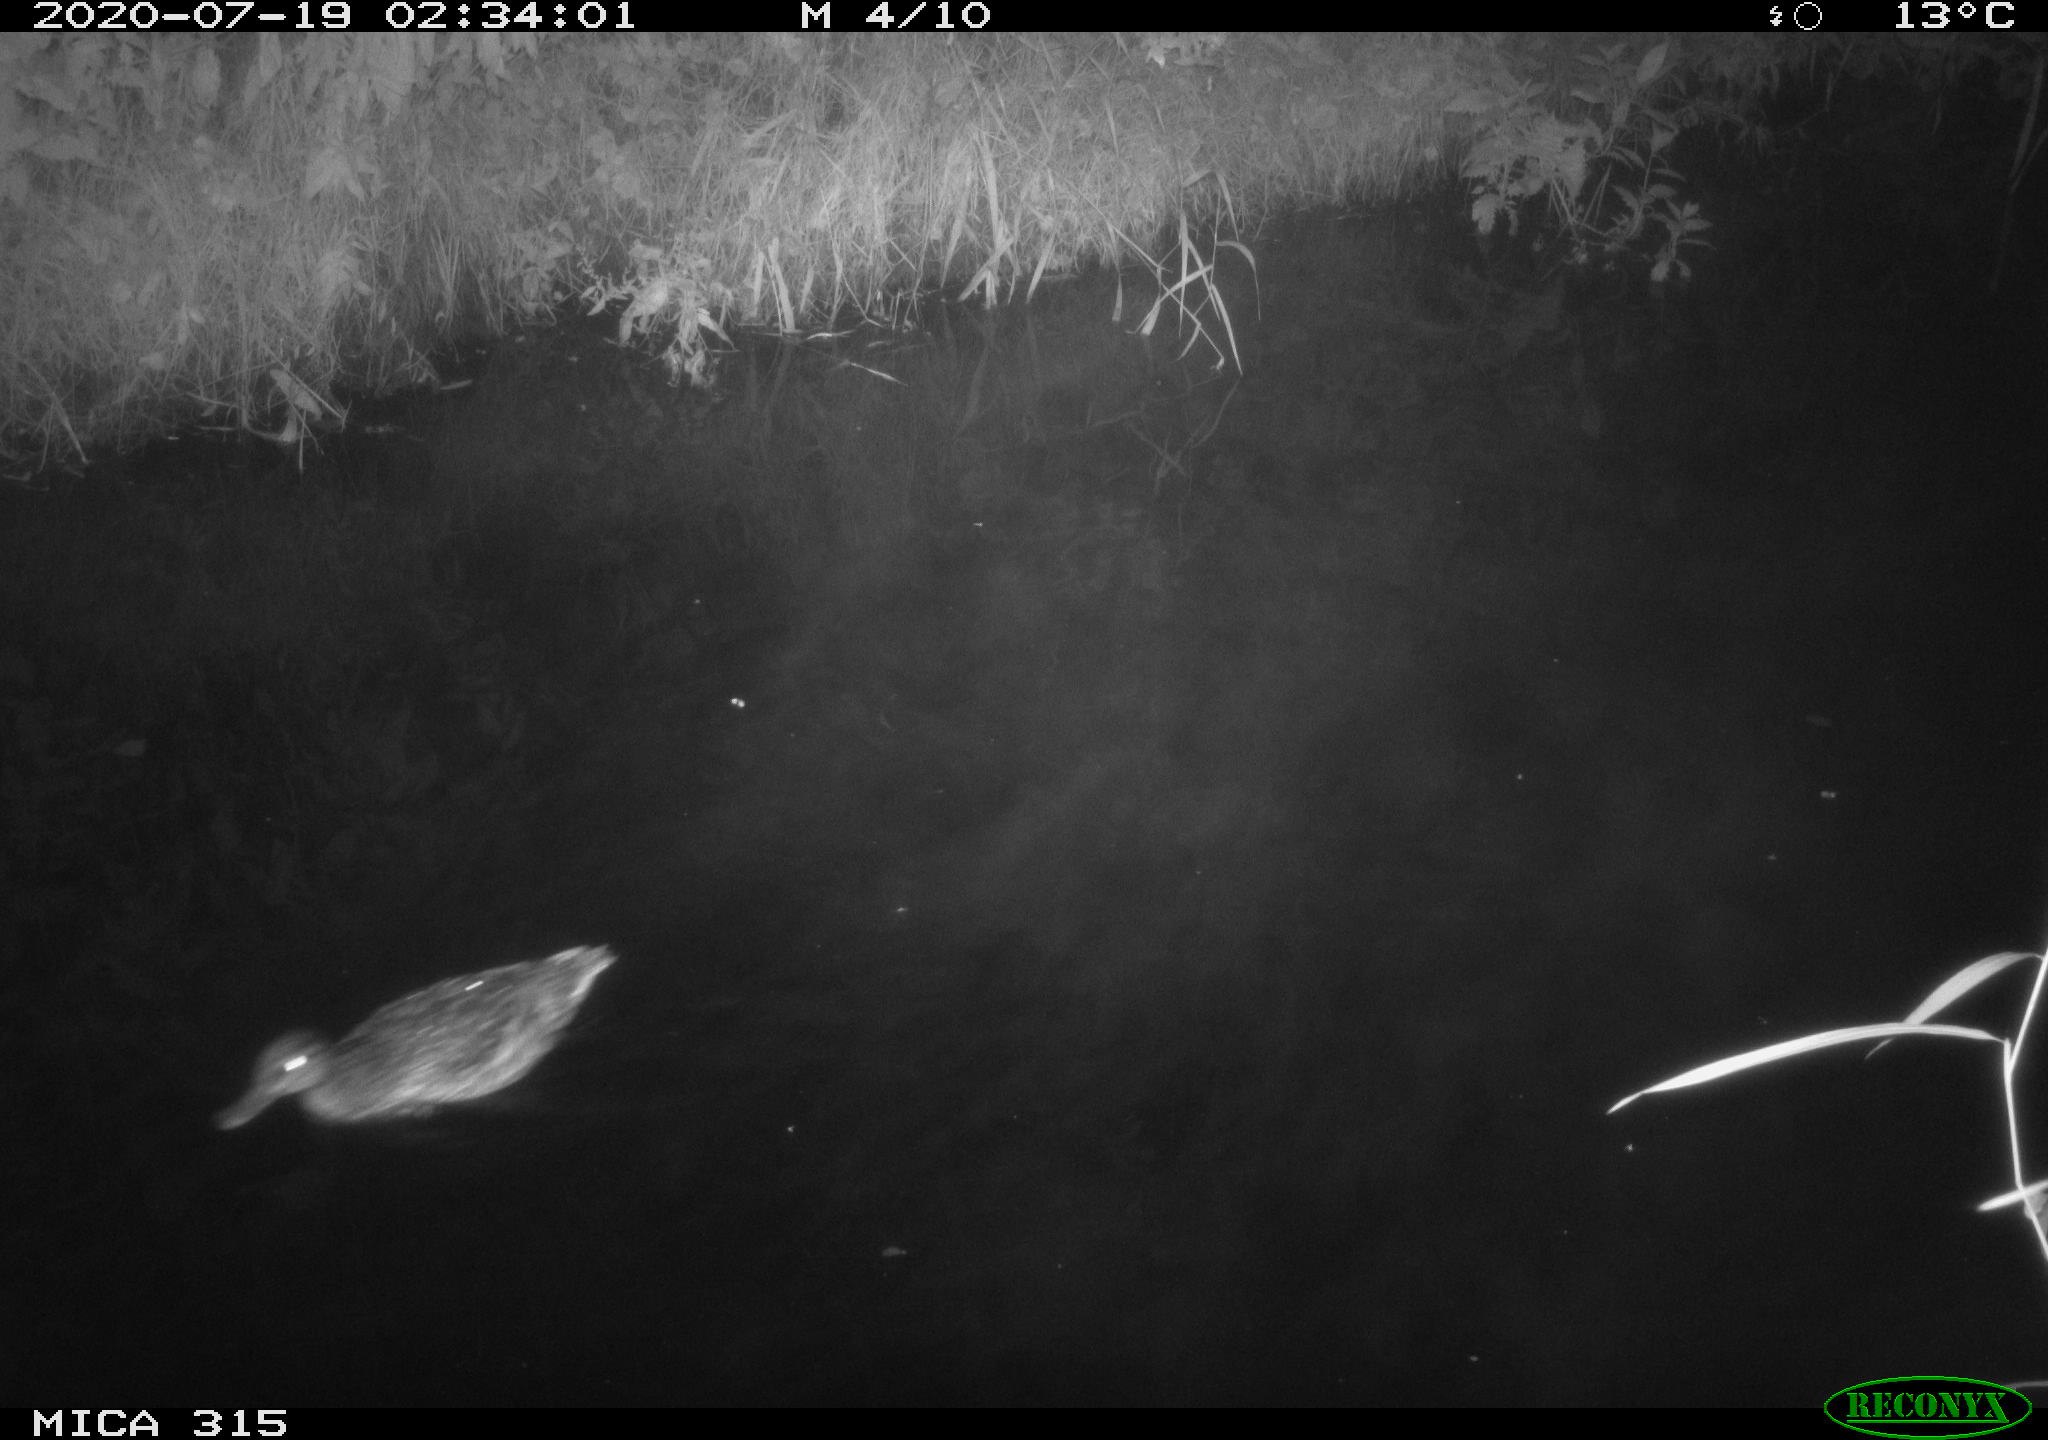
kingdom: Animalia
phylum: Chordata
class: Aves
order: Anseriformes
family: Anatidae
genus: Anas
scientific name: Anas platyrhynchos
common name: Mallard
